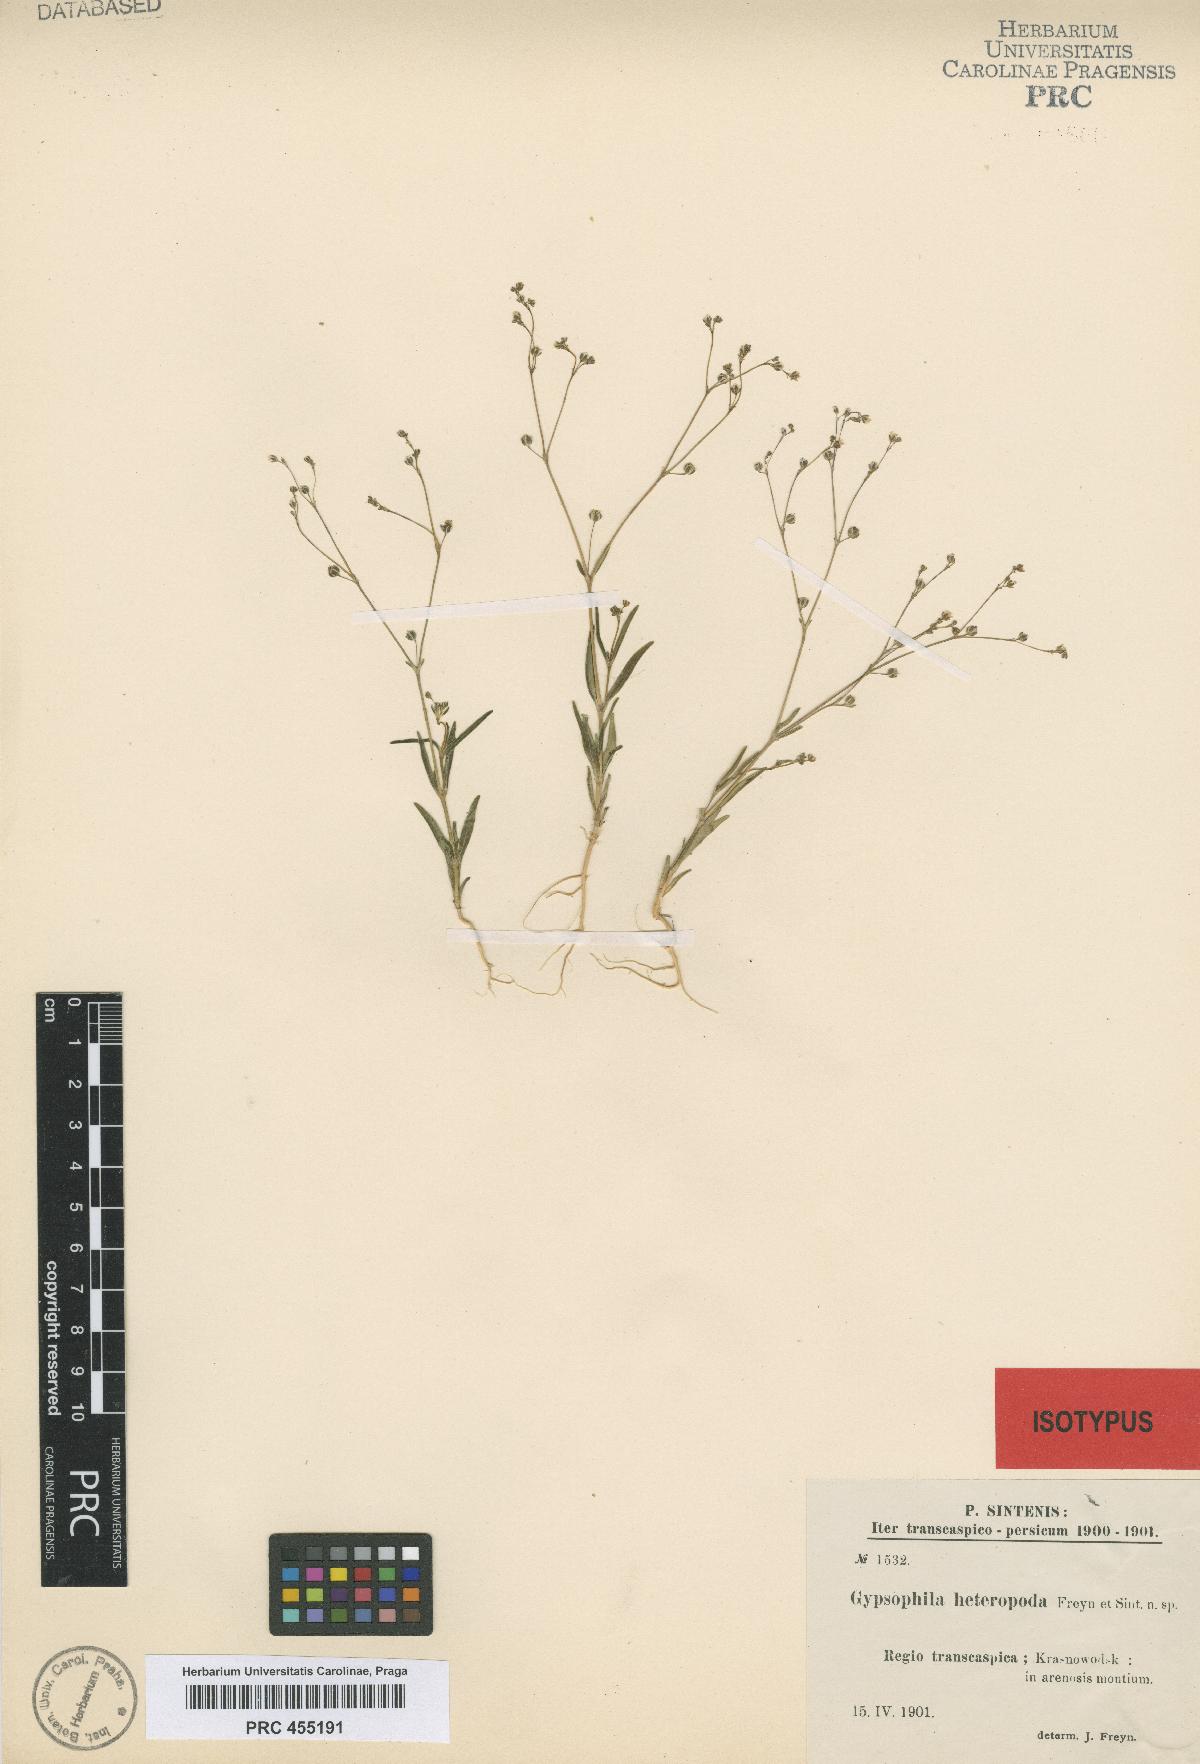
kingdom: Plantae
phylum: Tracheophyta
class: Magnoliopsida
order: Caryophyllales
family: Caryophyllaceae
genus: Gypsophila
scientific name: Gypsophila heteropoda
